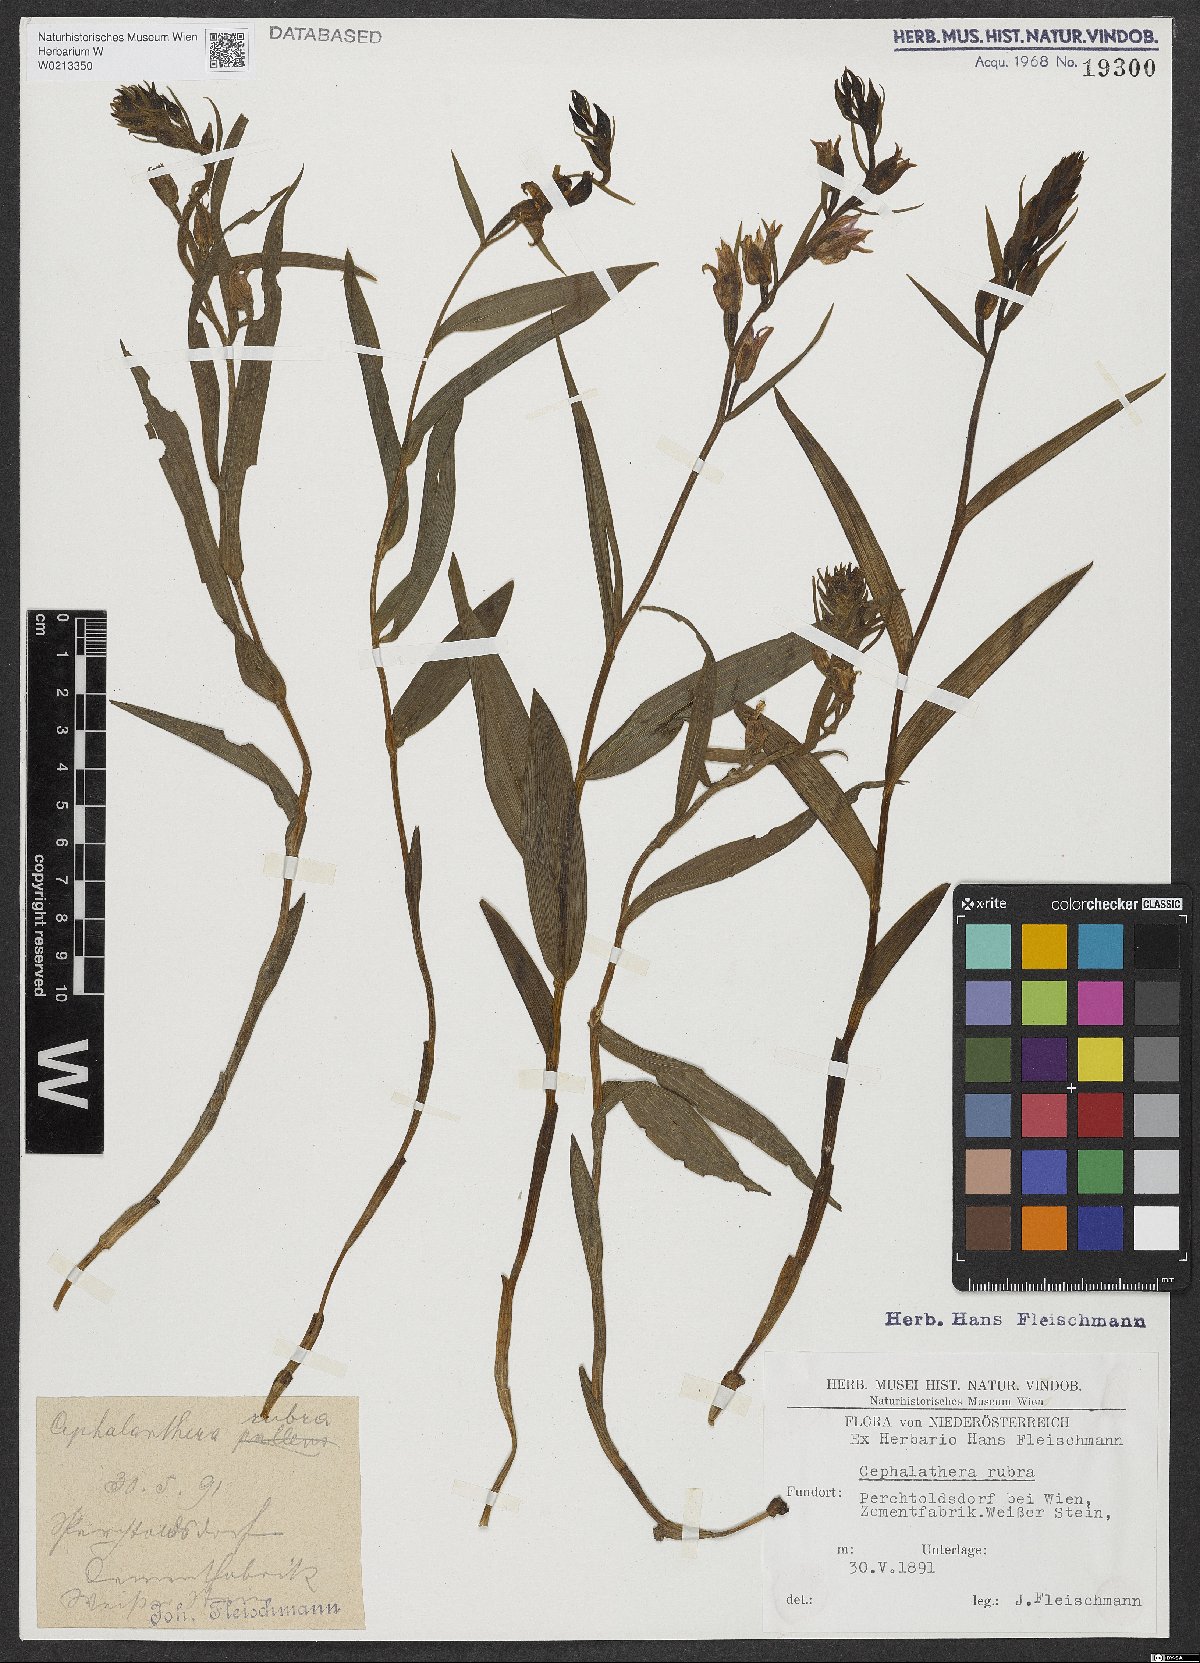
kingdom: Plantae
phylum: Tracheophyta
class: Liliopsida
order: Asparagales
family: Orchidaceae
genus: Cephalanthera
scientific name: Cephalanthera rubra
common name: Red helleborine
